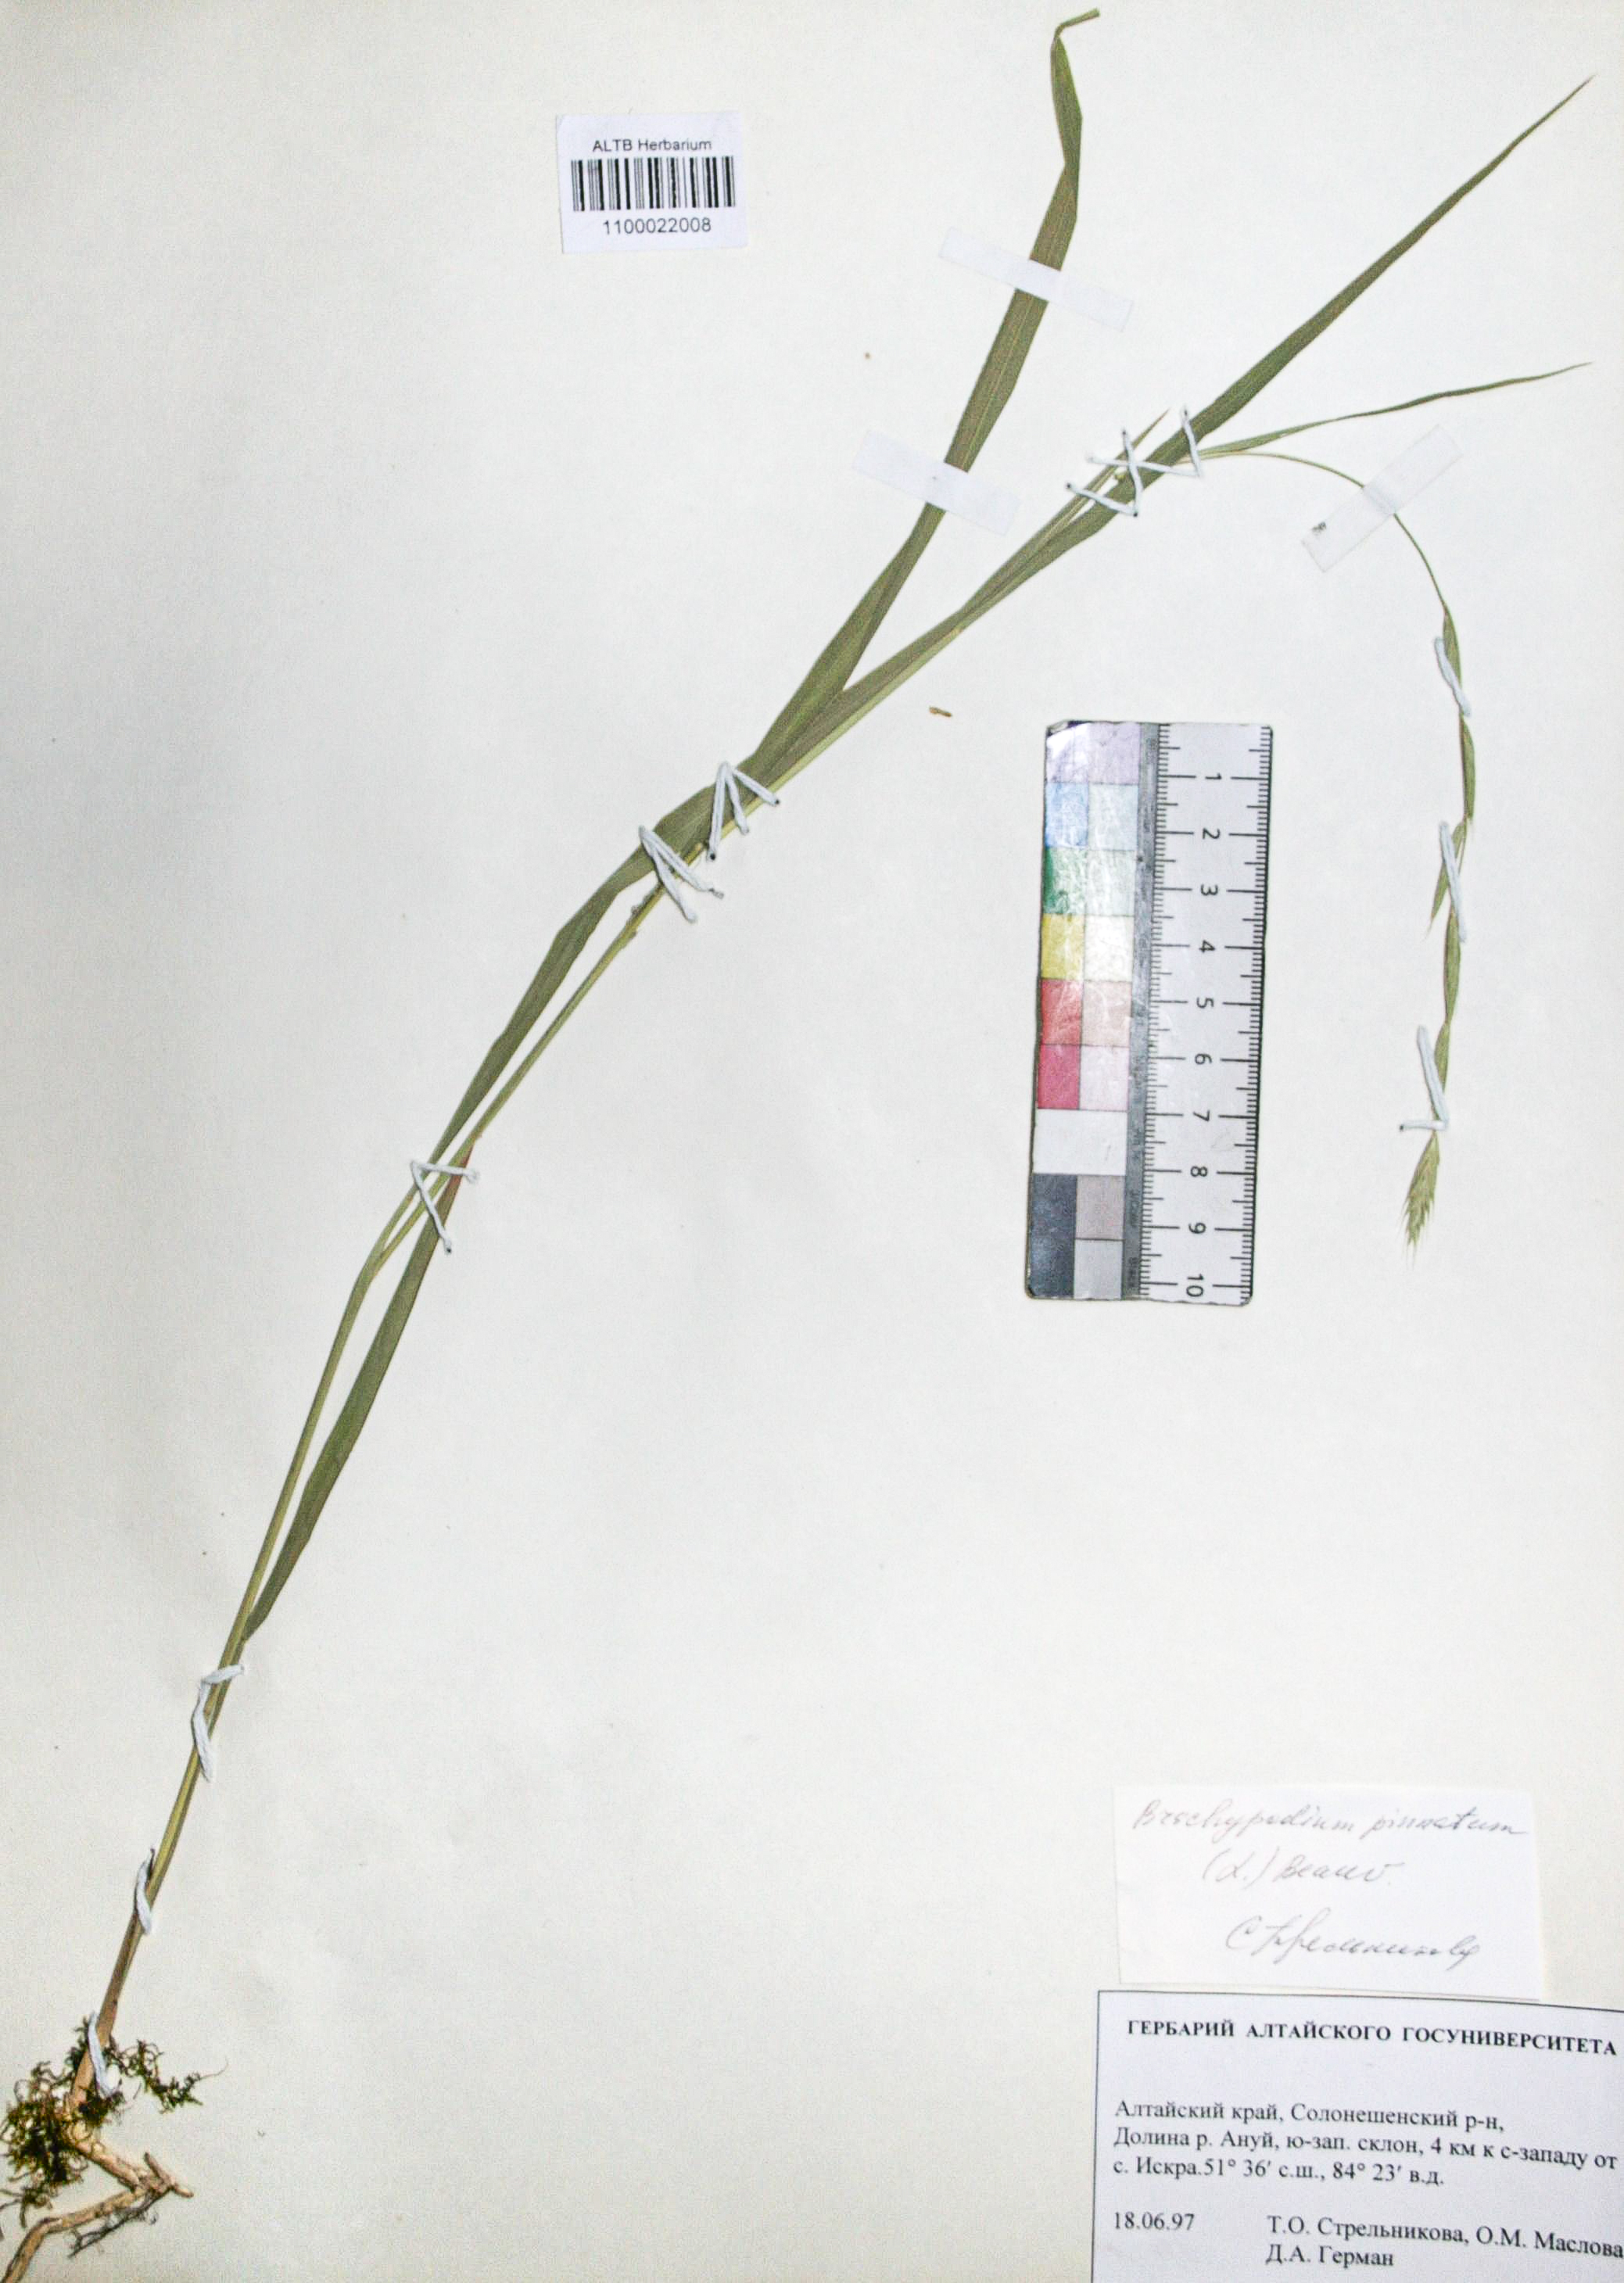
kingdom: Plantae
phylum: Tracheophyta
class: Liliopsida
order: Poales
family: Poaceae
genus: Brachypodium
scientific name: Brachypodium pinnatum
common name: Tor grass
